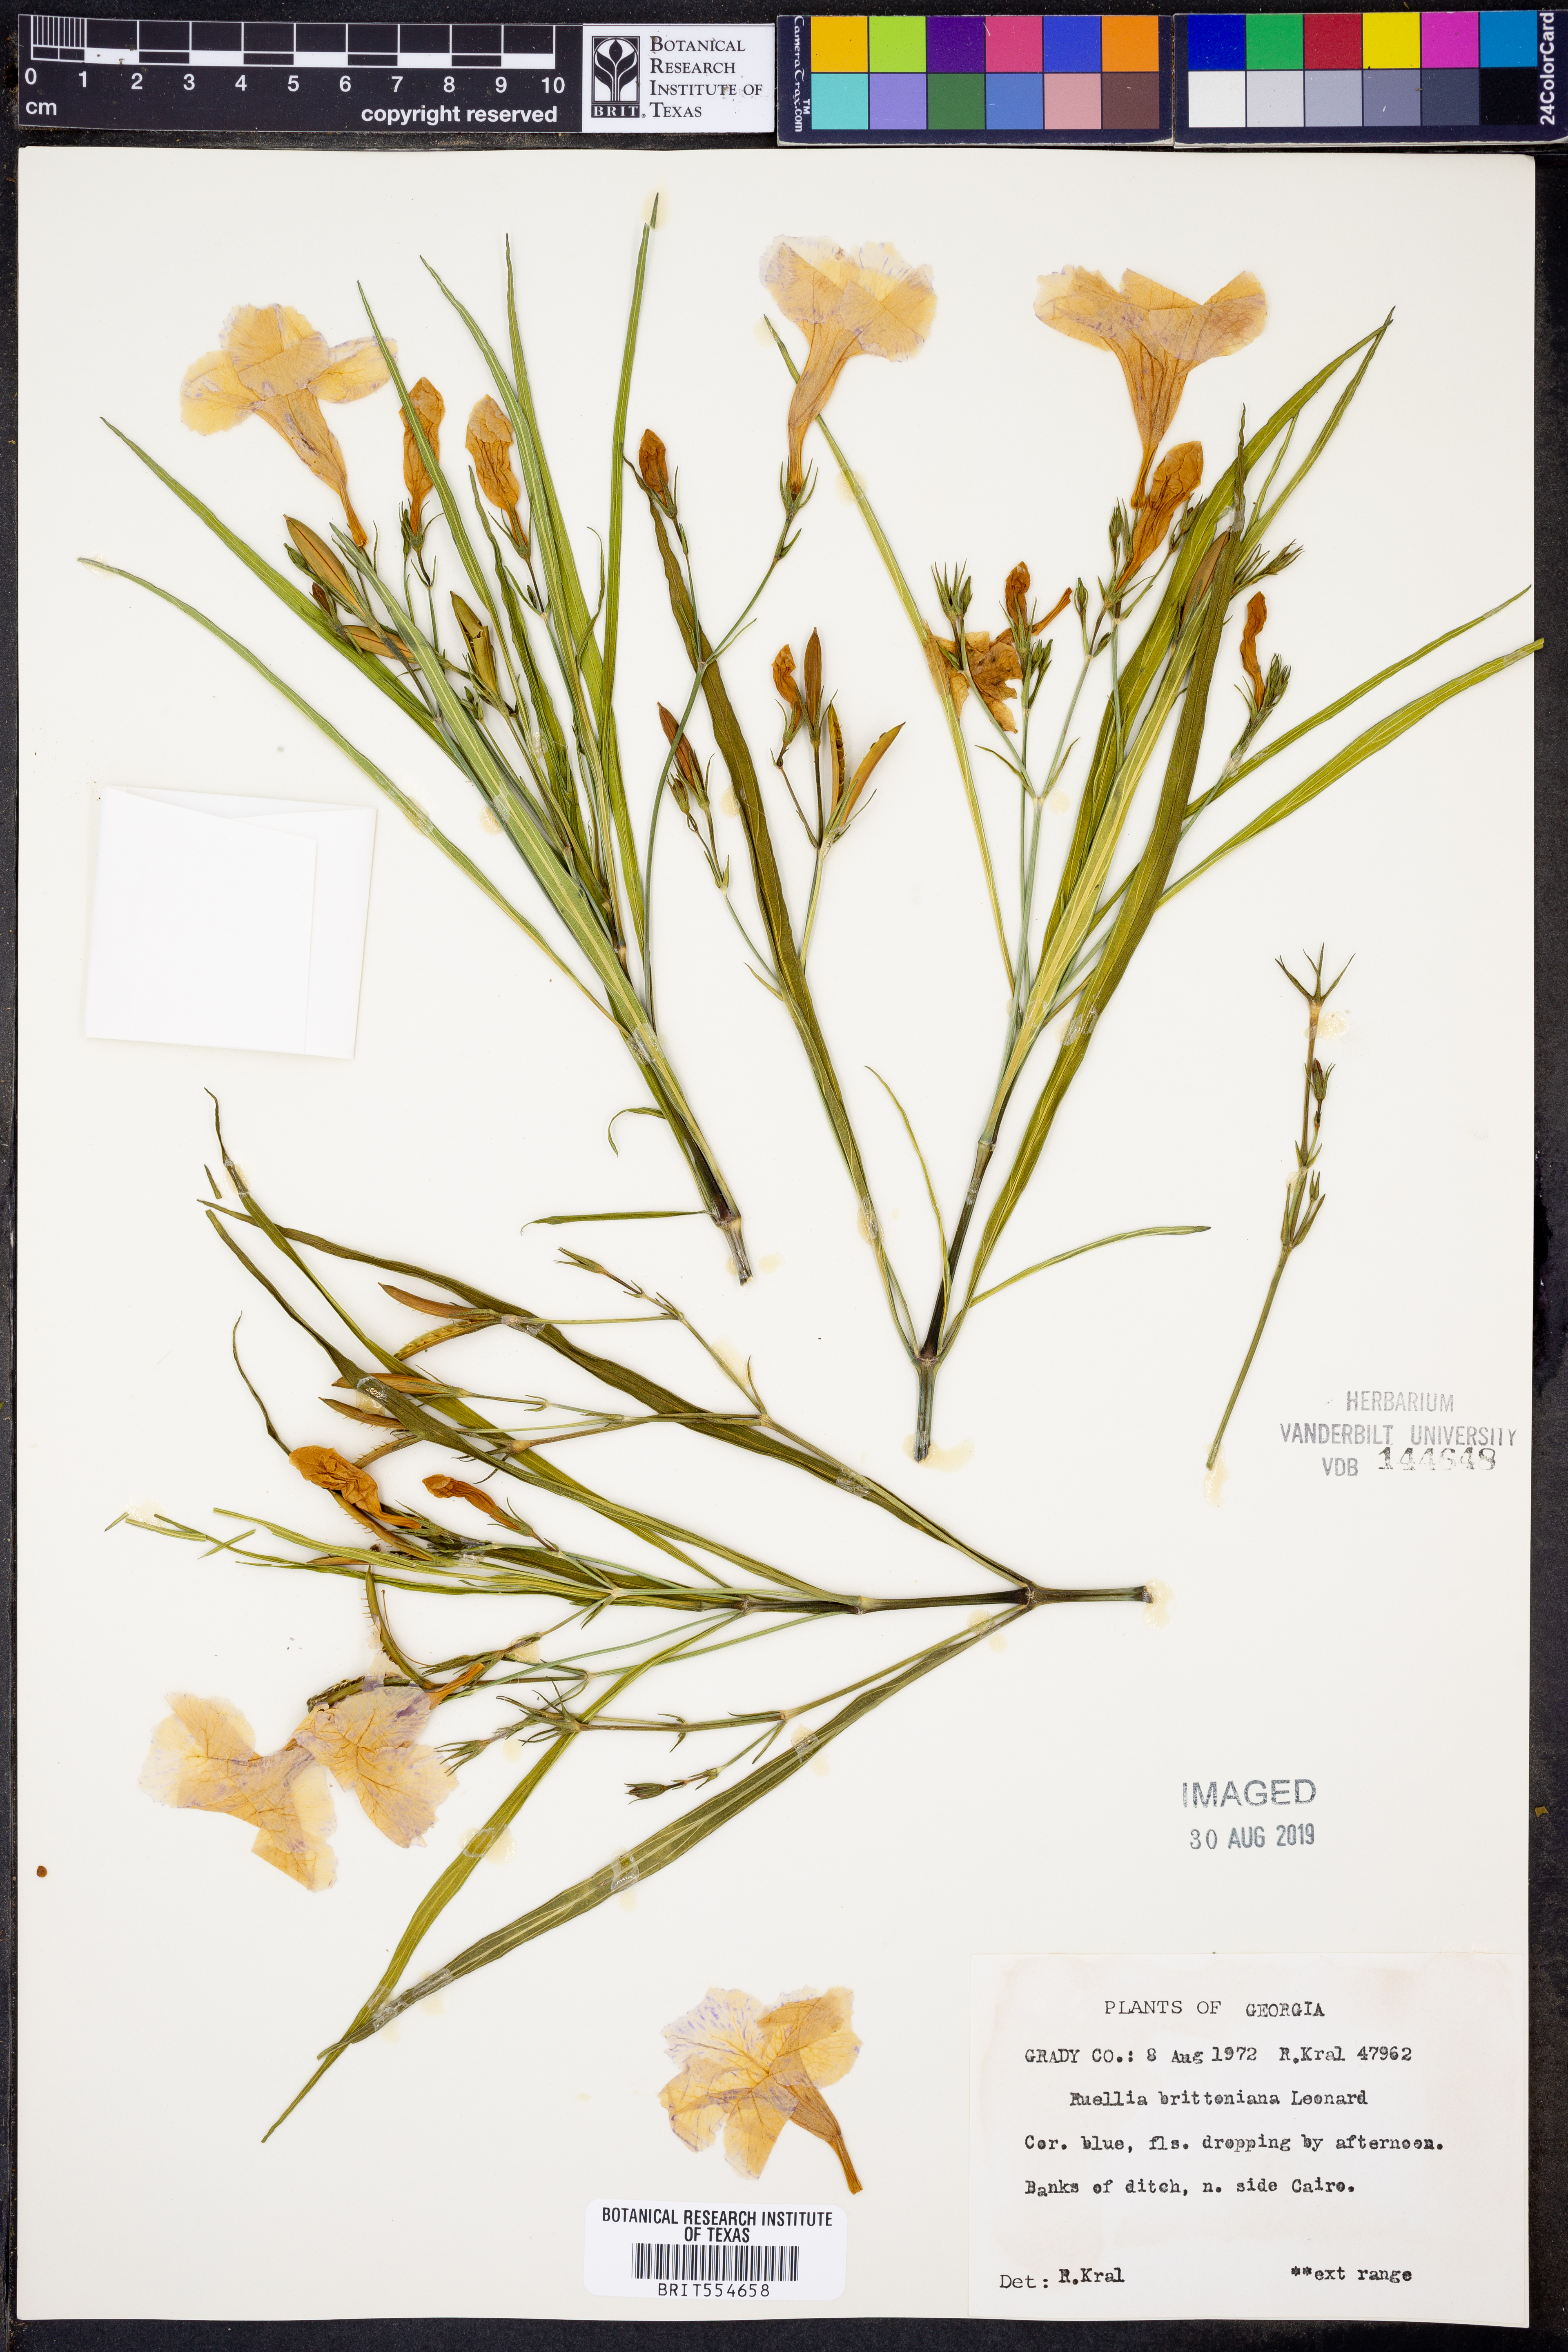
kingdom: Plantae
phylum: Tracheophyta
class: Magnoliopsida
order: Lamiales
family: Acanthaceae
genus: Ruellia
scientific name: Ruellia simplex
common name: Softseed wild petunia
